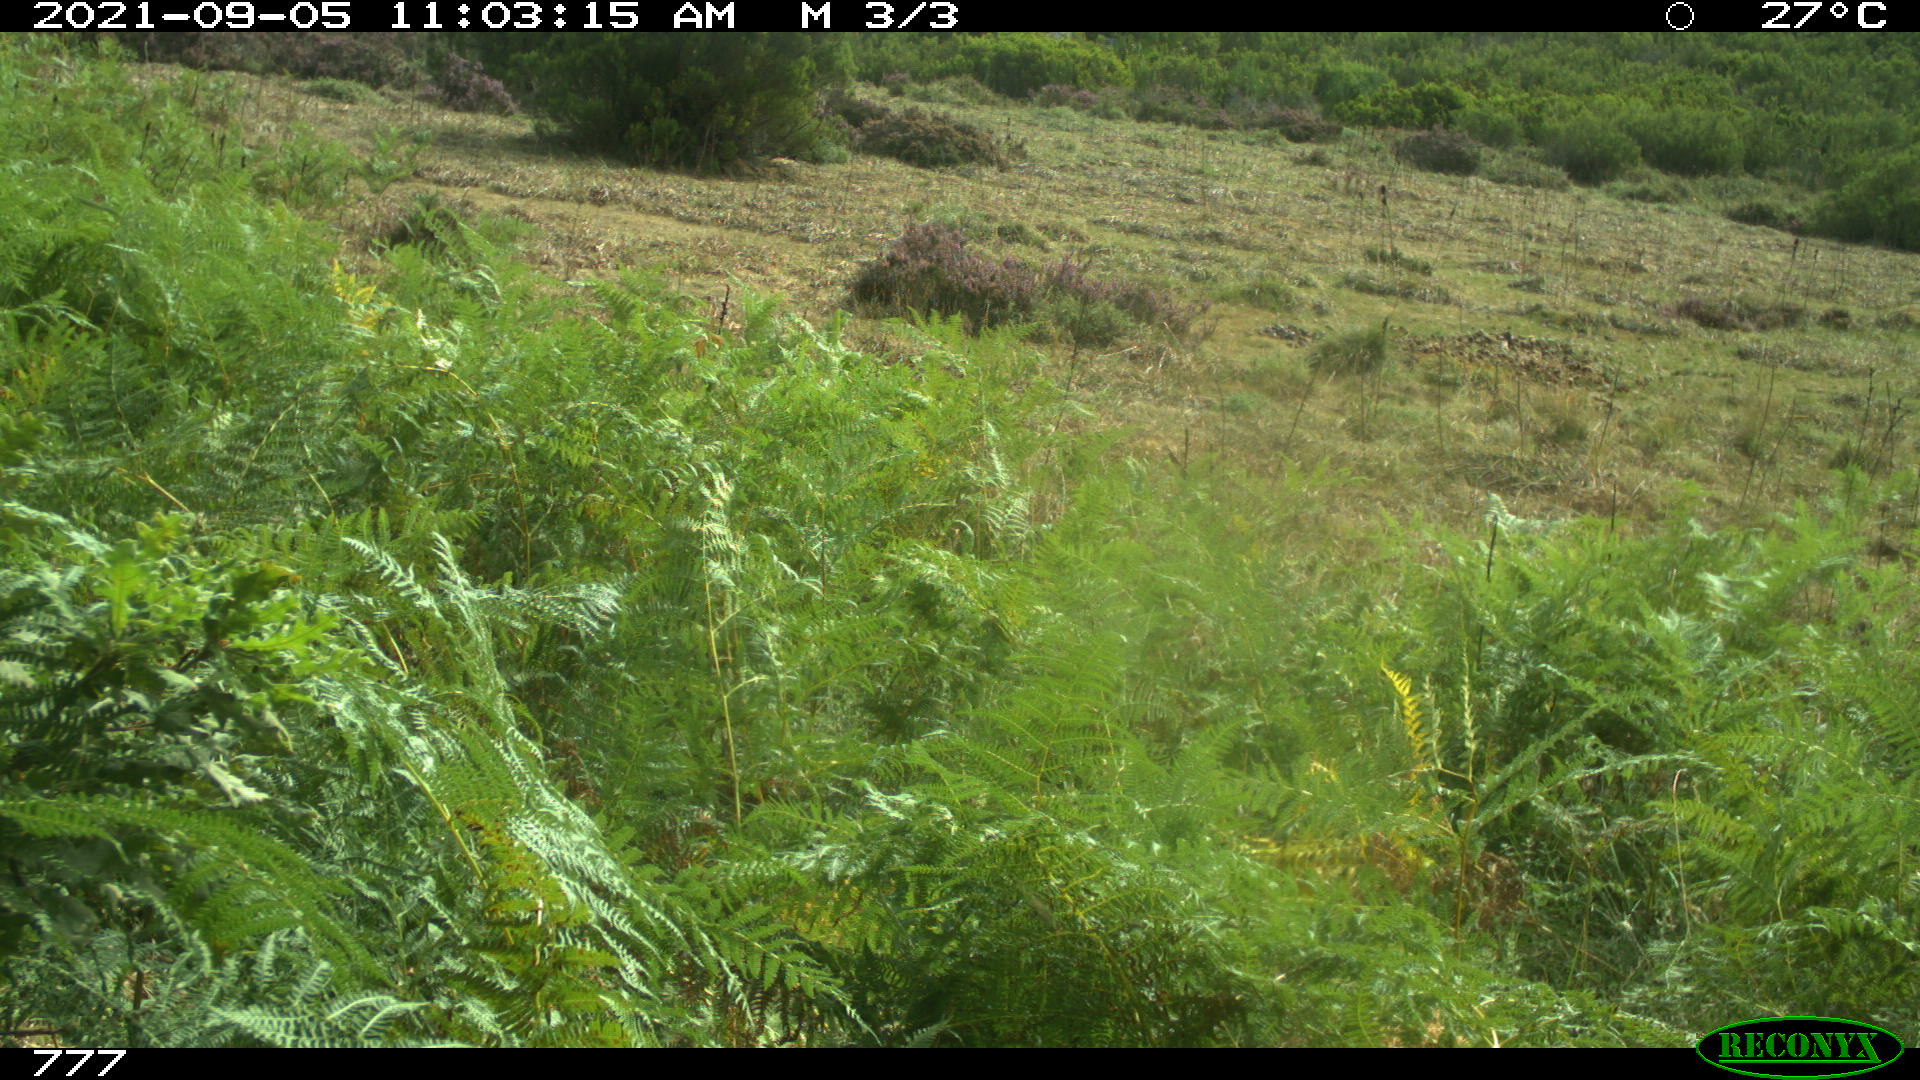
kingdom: Animalia
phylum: Chordata
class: Mammalia
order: Perissodactyla
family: Equidae
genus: Equus
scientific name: Equus caballus
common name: Horse
